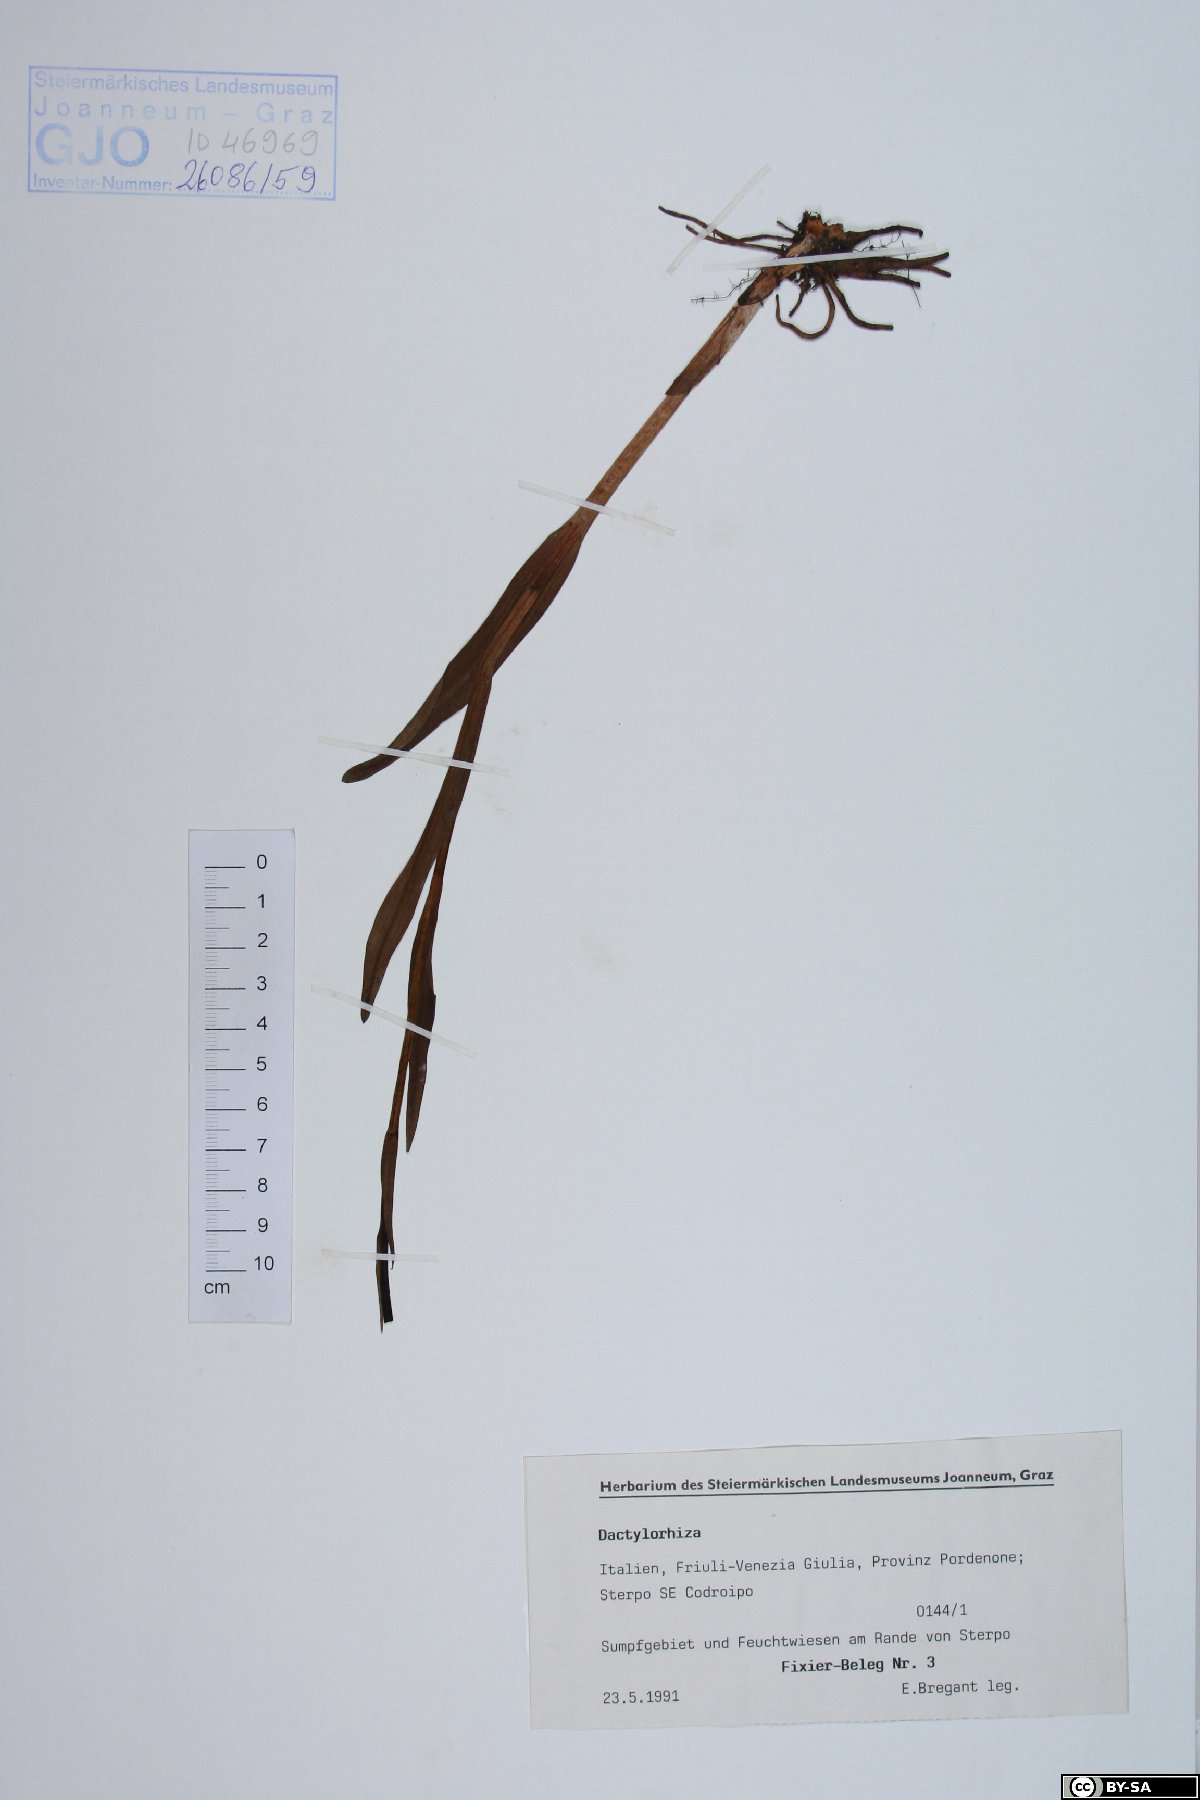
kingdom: Plantae
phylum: Tracheophyta
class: Liliopsida
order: Asparagales
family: Orchidaceae
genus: Dactylorhiza
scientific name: Dactylorhiza
